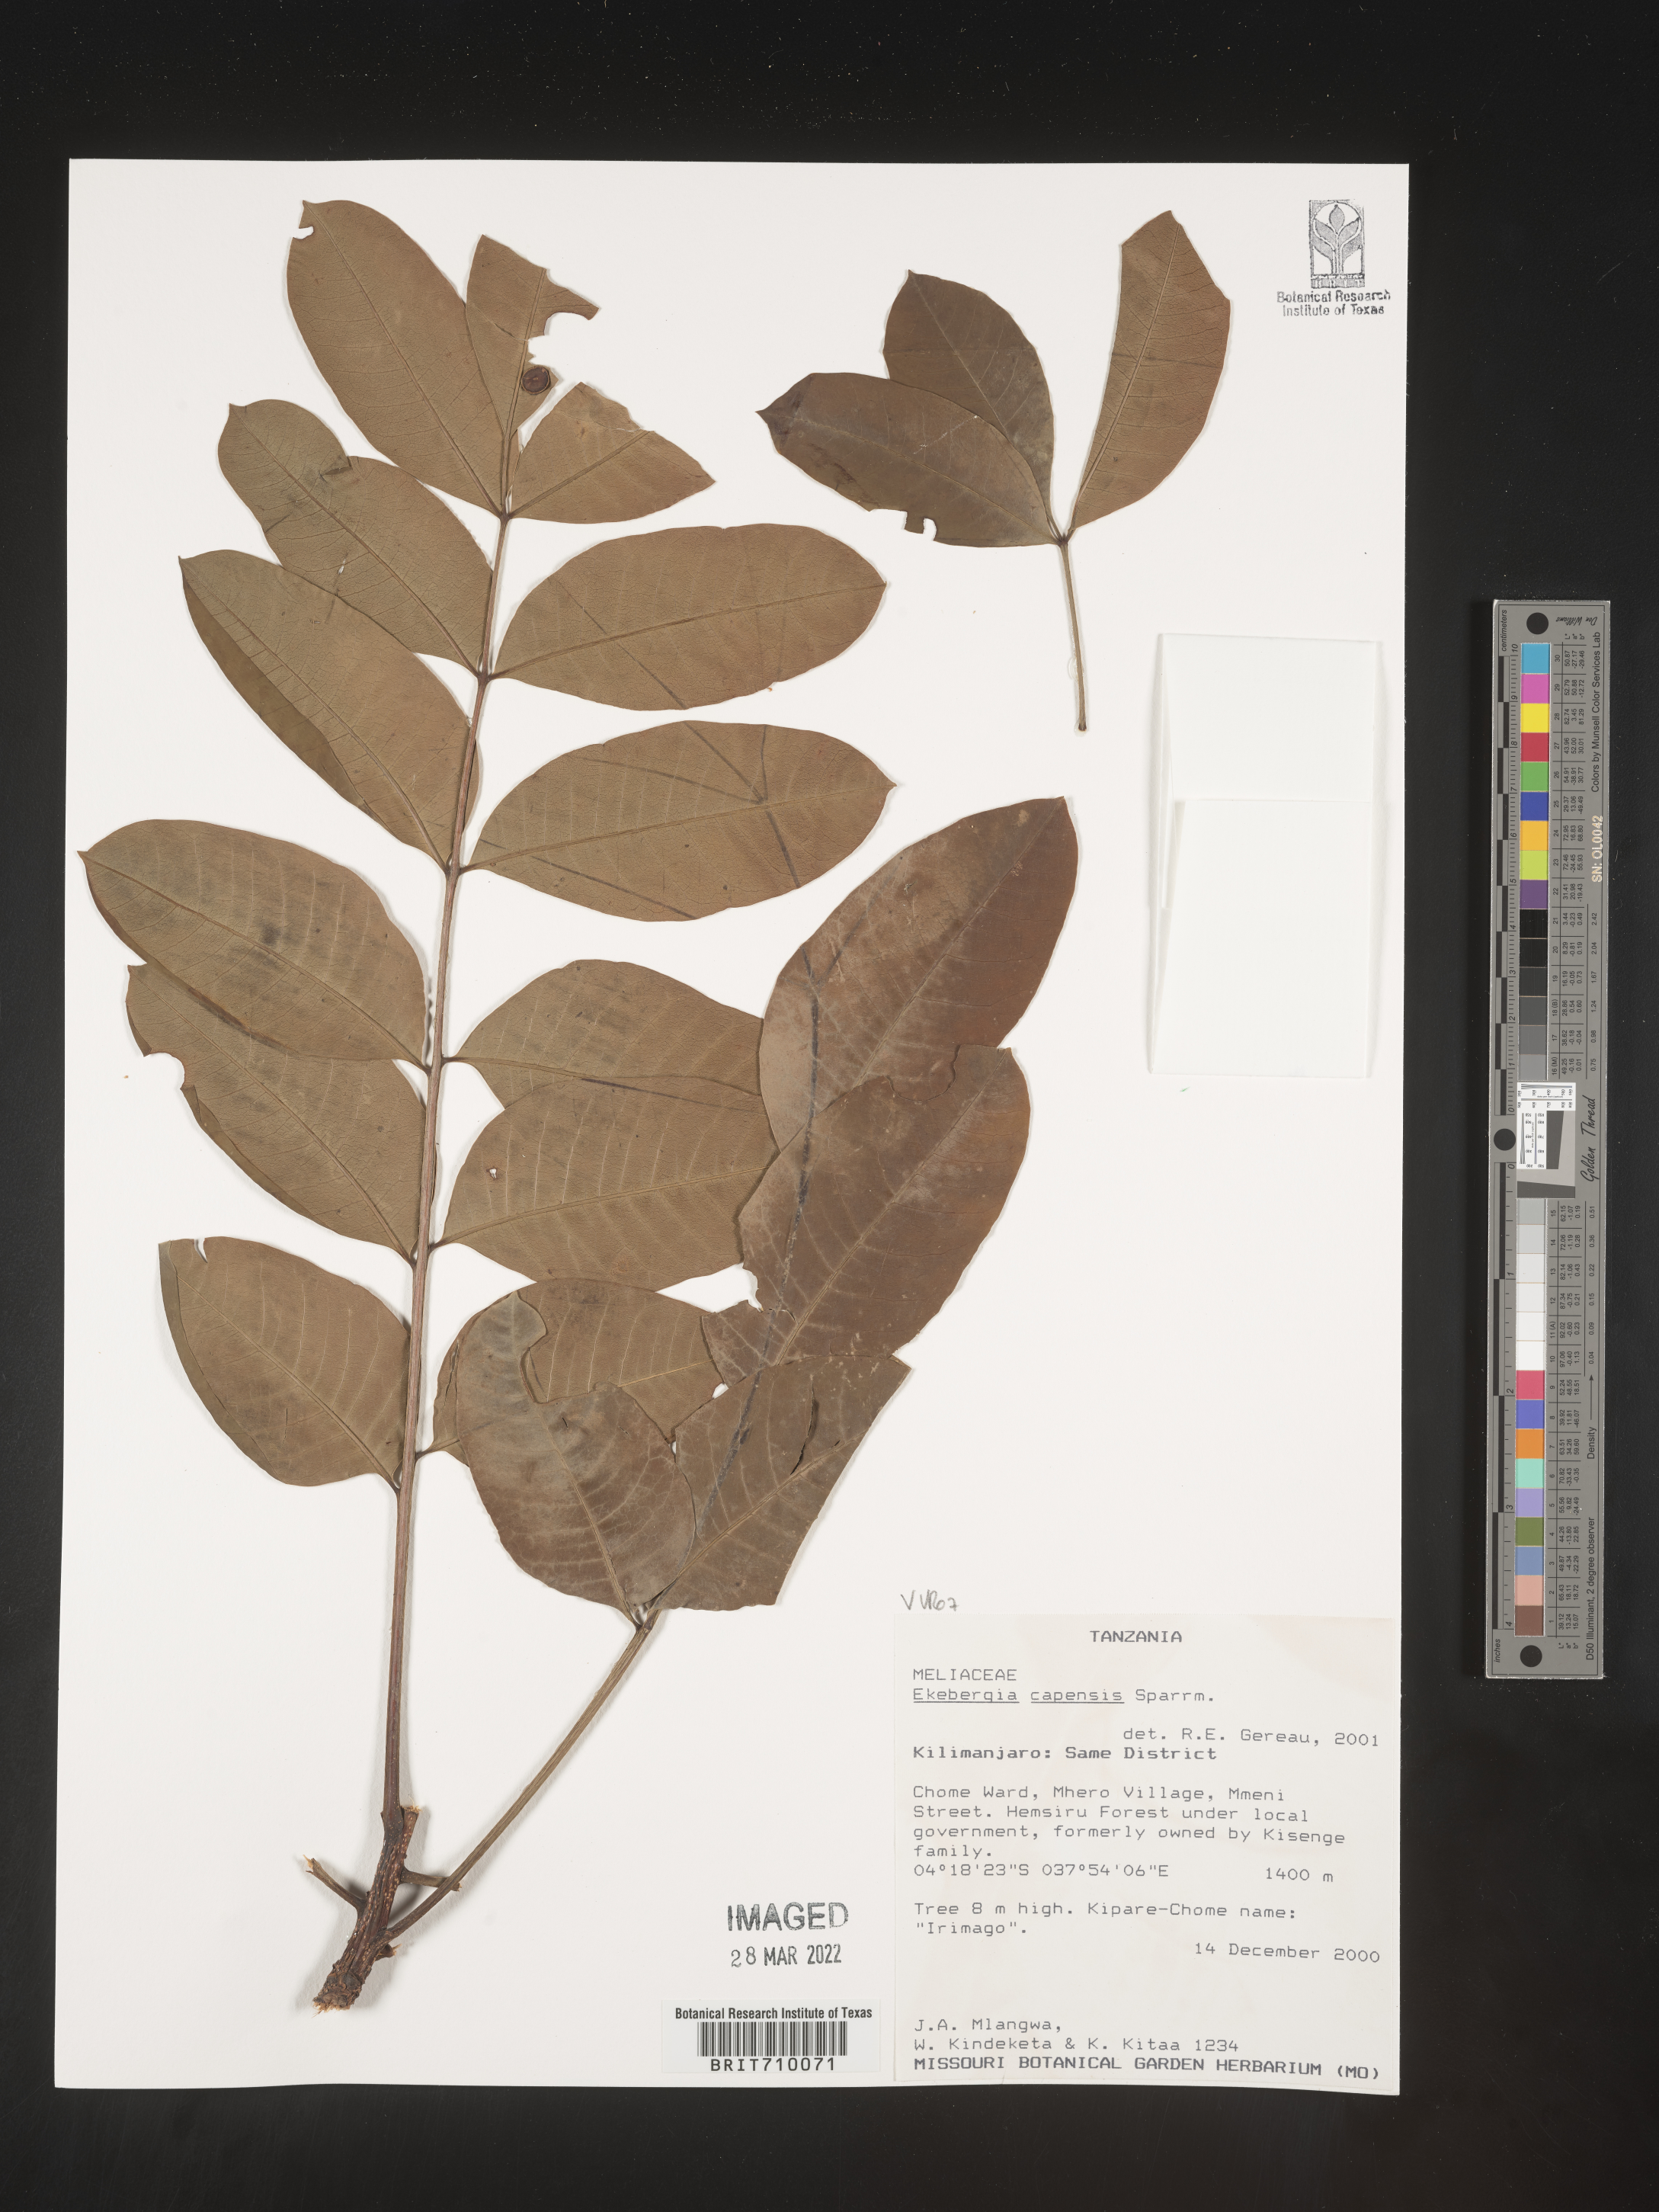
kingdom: Plantae
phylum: Tracheophyta
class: Magnoliopsida
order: Sapindales
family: Meliaceae
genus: Ekebergia
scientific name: Ekebergia
